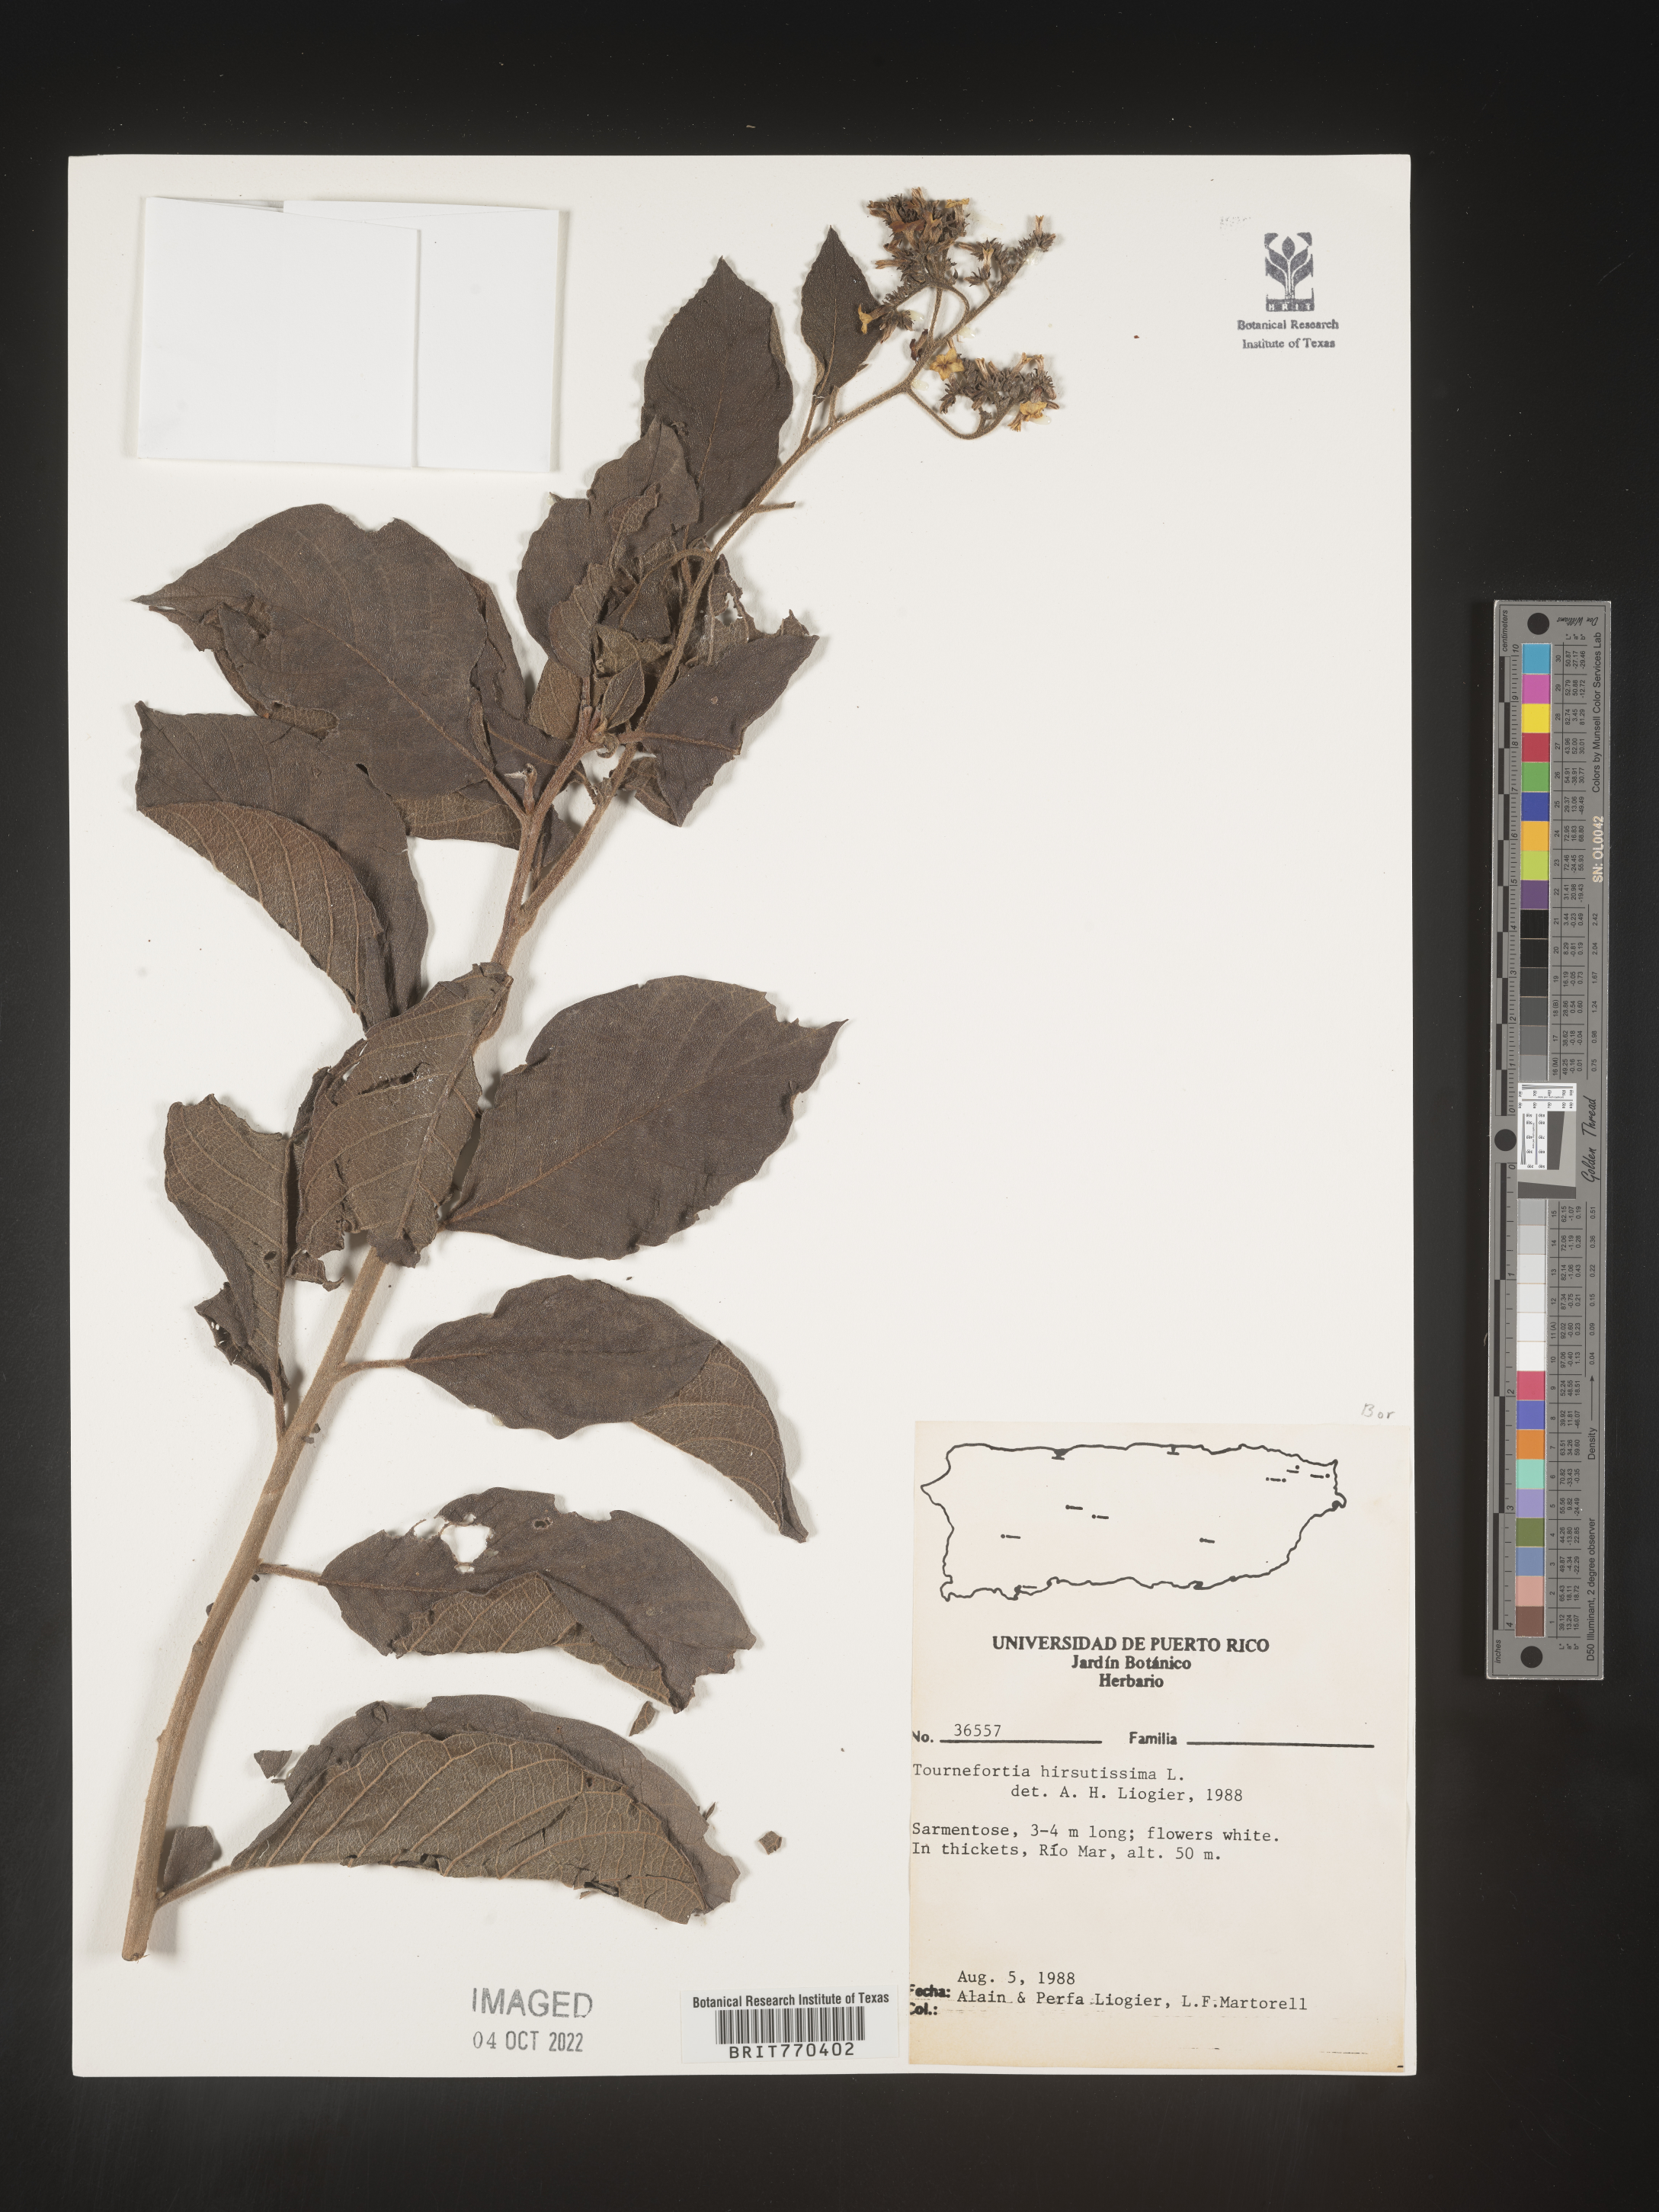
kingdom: Plantae
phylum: Tracheophyta
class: Magnoliopsida
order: Boraginales
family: Heliotropiaceae
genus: Tournefortia
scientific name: Tournefortia
